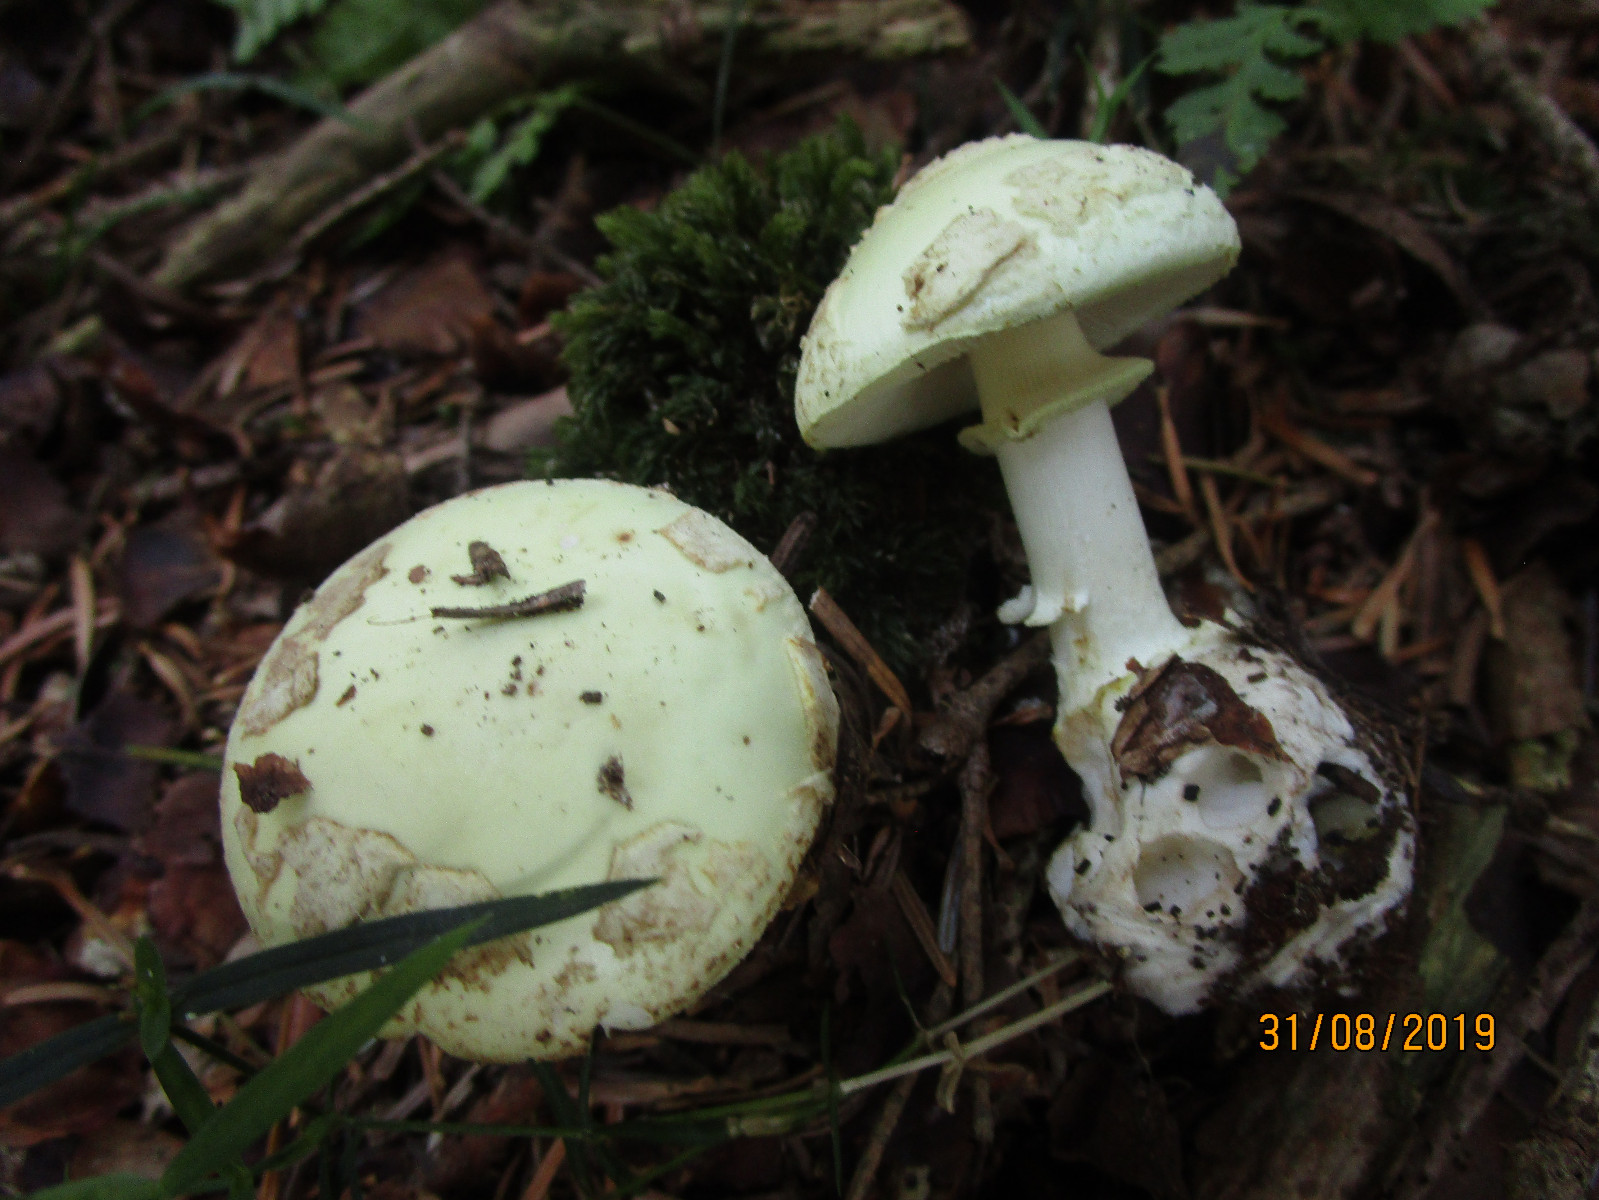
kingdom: Fungi
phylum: Basidiomycota
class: Agaricomycetes
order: Agaricales
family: Amanitaceae
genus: Amanita
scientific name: Amanita citrina
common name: kugleknoldet fluesvamp
